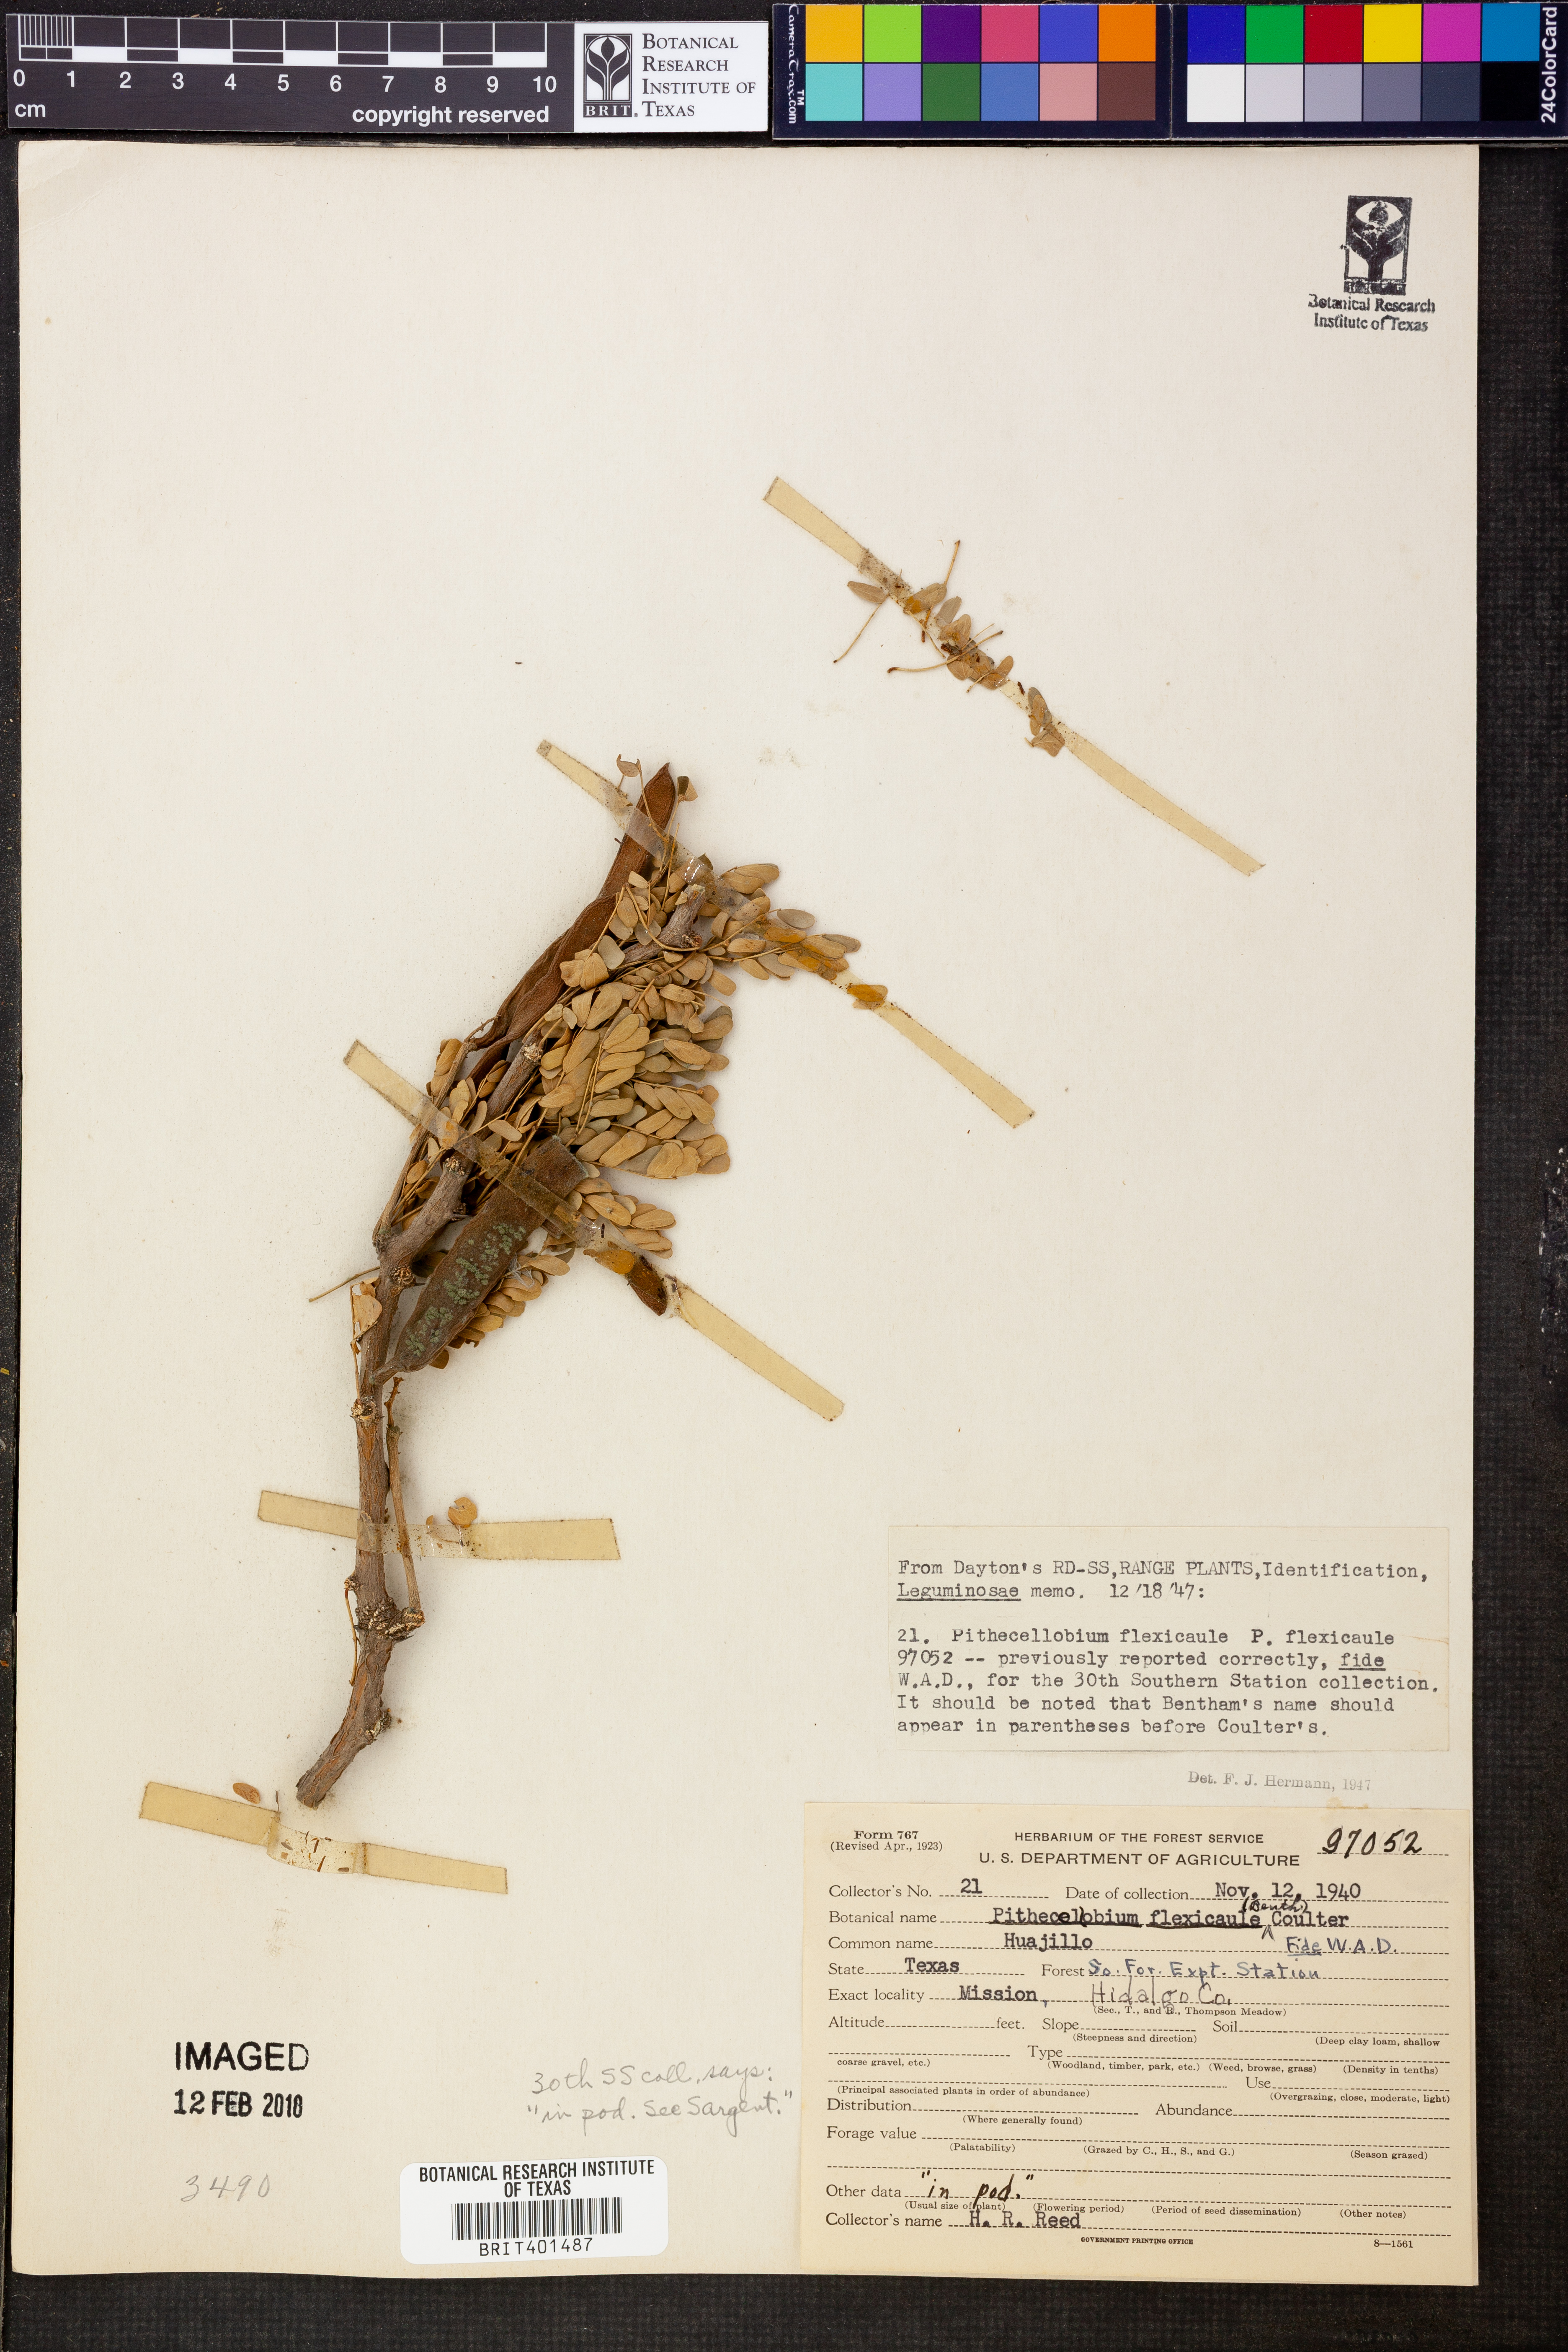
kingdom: Plantae
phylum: Tracheophyta
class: Magnoliopsida
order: Fabales
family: Fabaceae
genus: Ebenopsis
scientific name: Ebenopsis ebano
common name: Ebony blackbead
